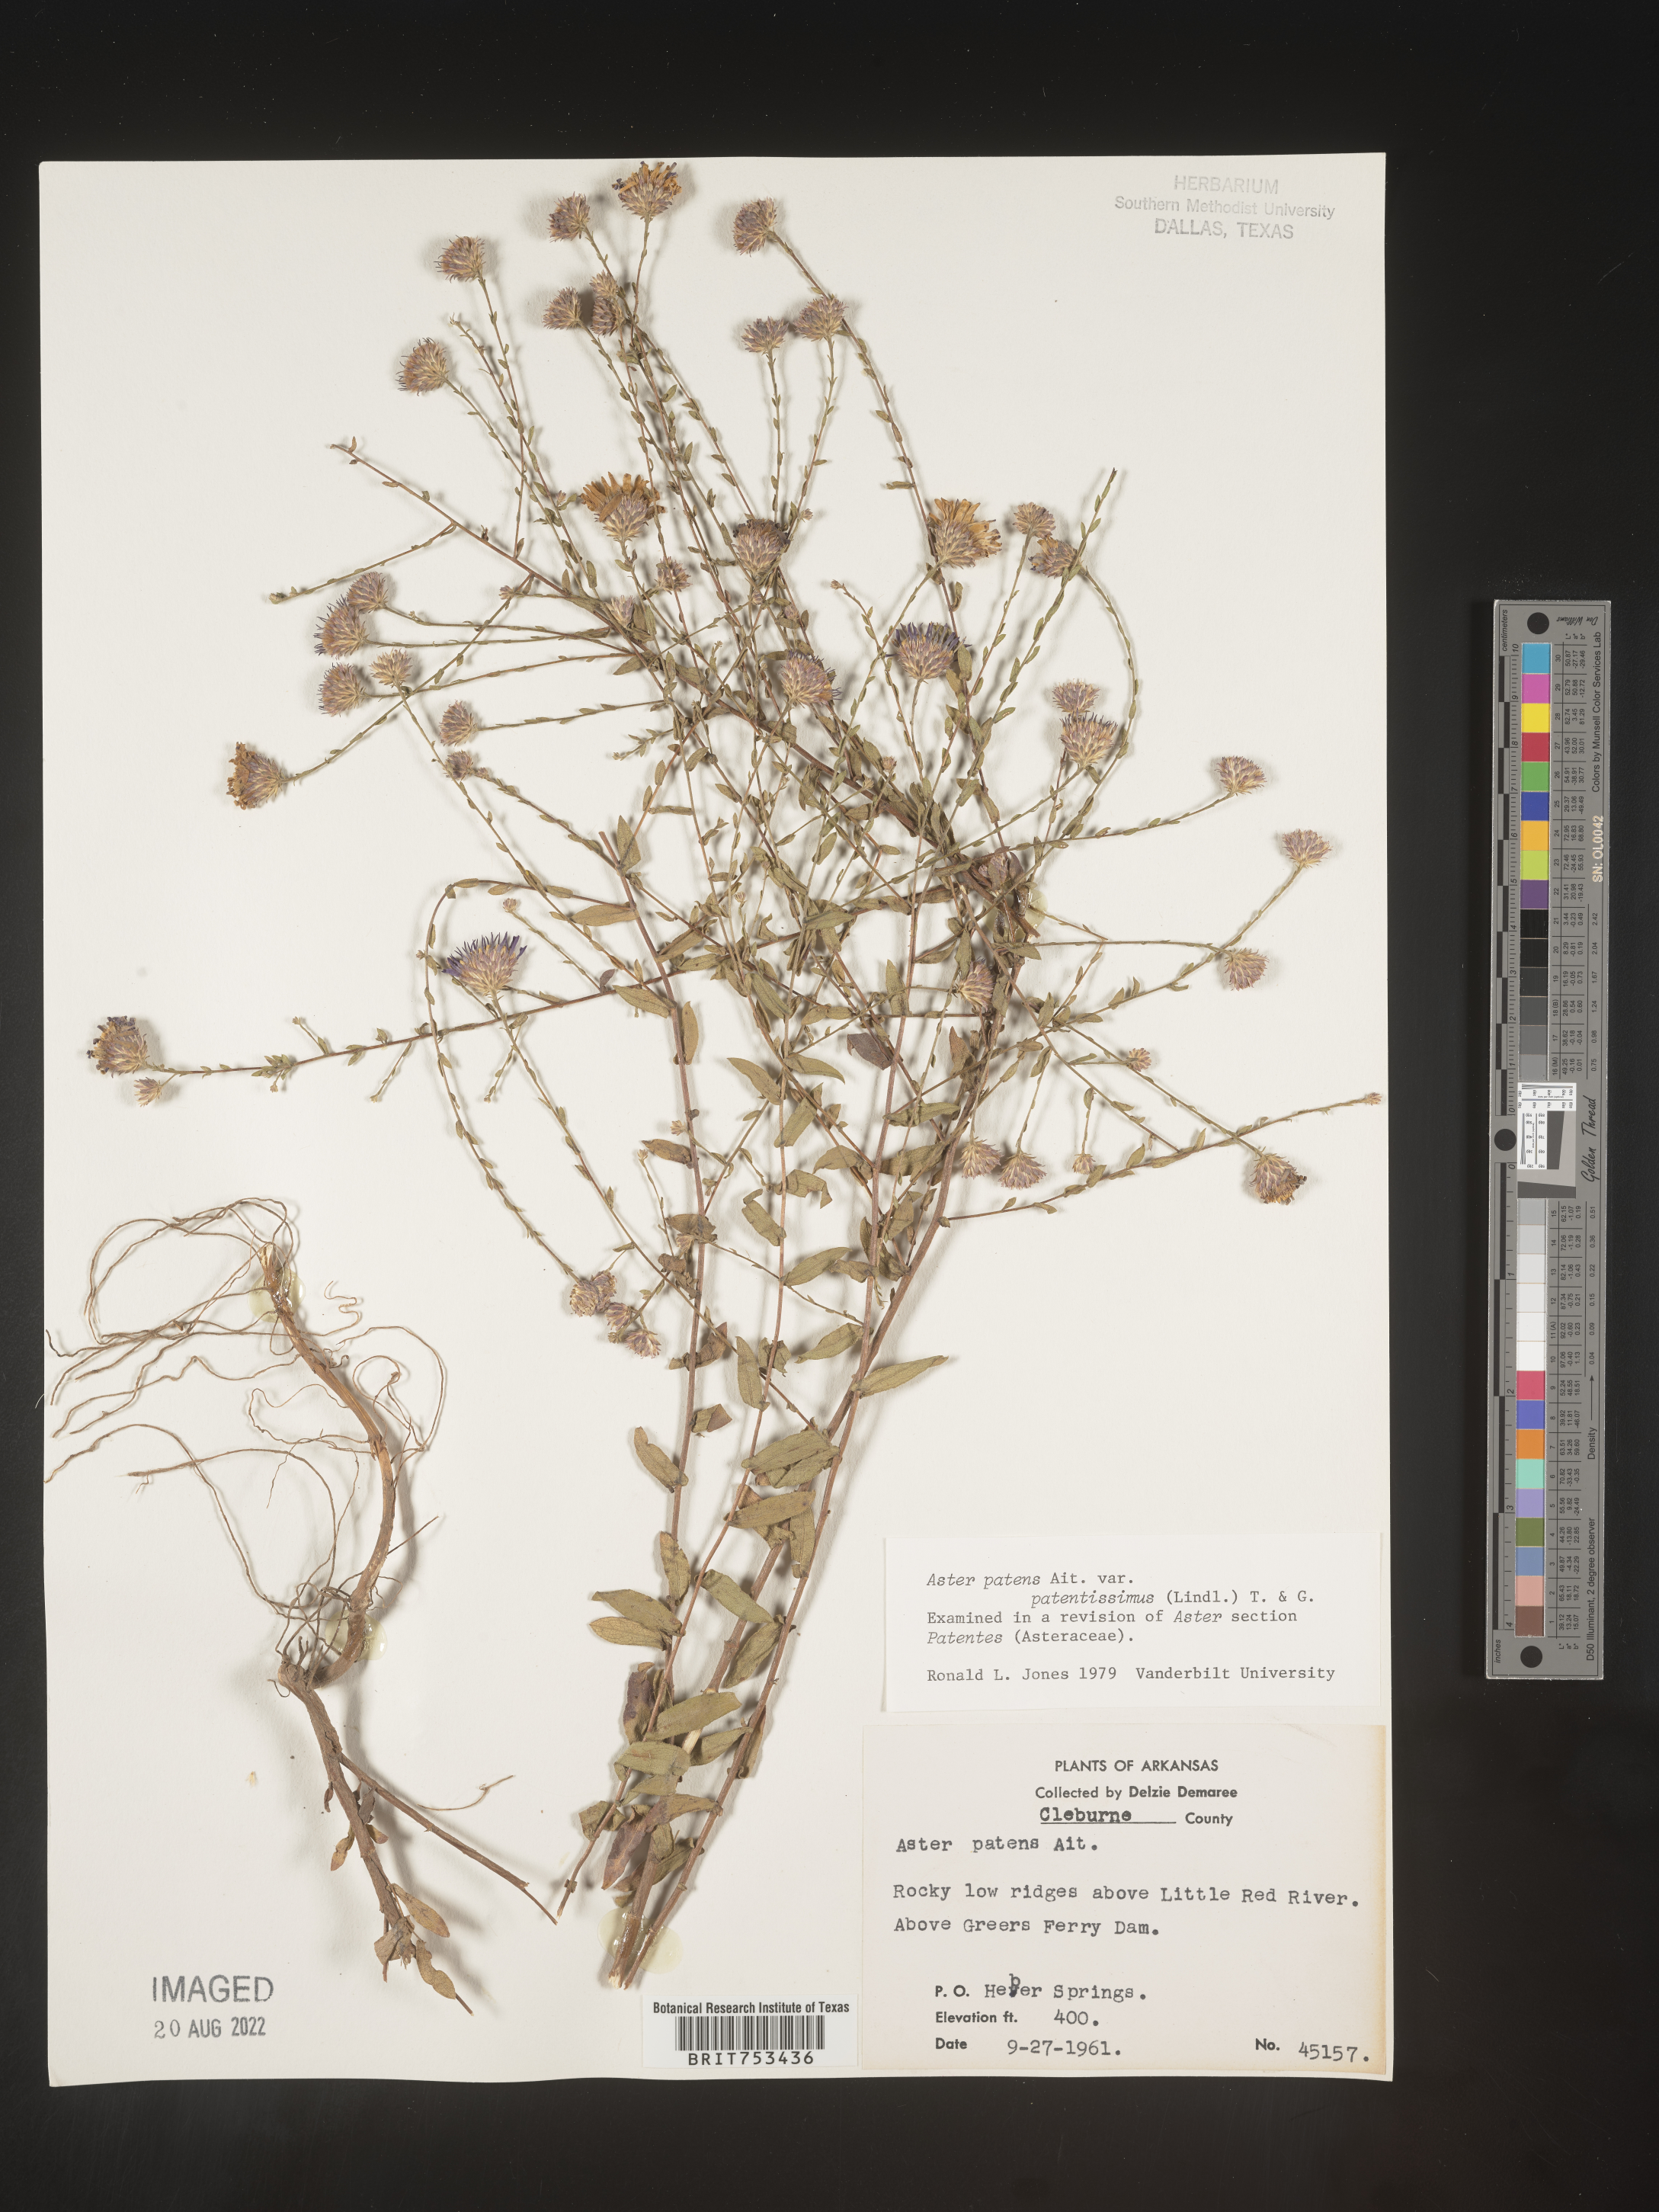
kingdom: Plantae
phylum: Tracheophyta
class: Magnoliopsida
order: Asterales
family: Asteraceae
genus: Symphyotrichum
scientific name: Symphyotrichum patens
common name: Late purple aster
